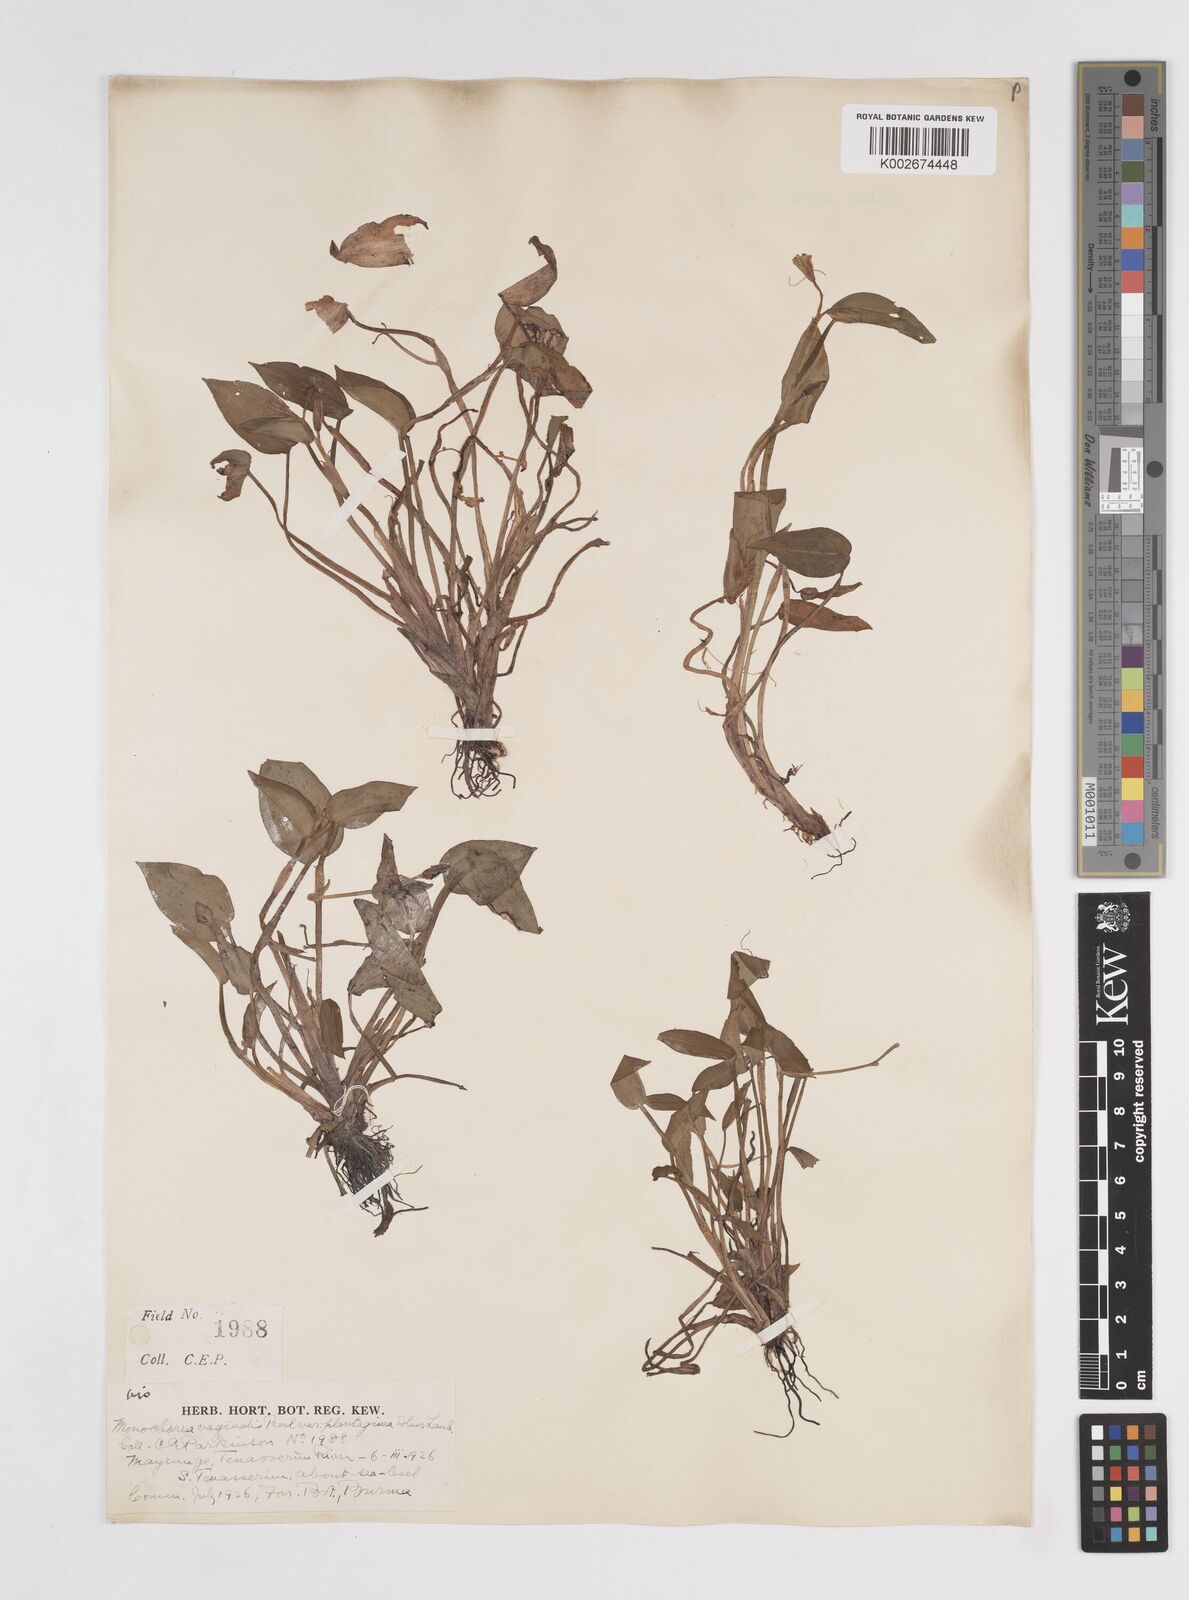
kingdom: Plantae
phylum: Tracheophyta
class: Liliopsida
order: Commelinales
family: Pontederiaceae
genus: Pontederia
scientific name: Pontederia vaginalis
